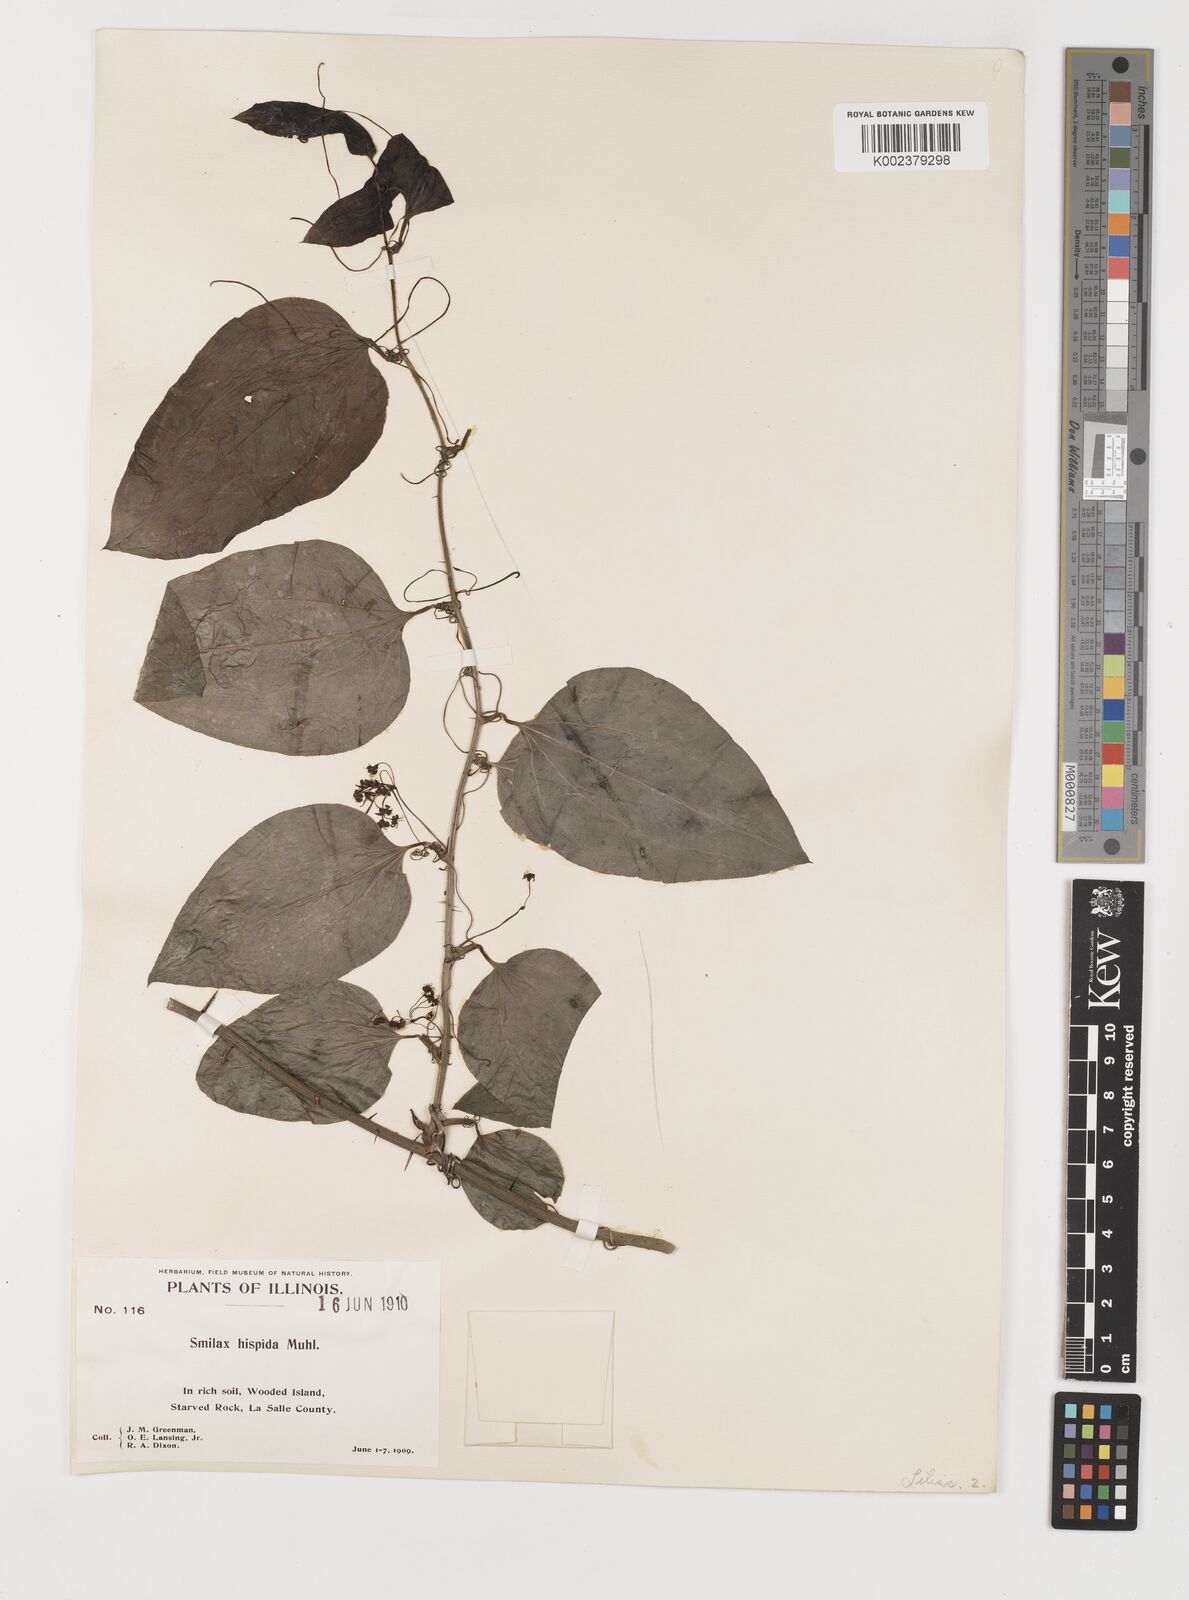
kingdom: Plantae
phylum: Tracheophyta
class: Liliopsida
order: Liliales
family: Smilacaceae
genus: Smilax
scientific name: Smilax tamnoides
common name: Hellfetter
